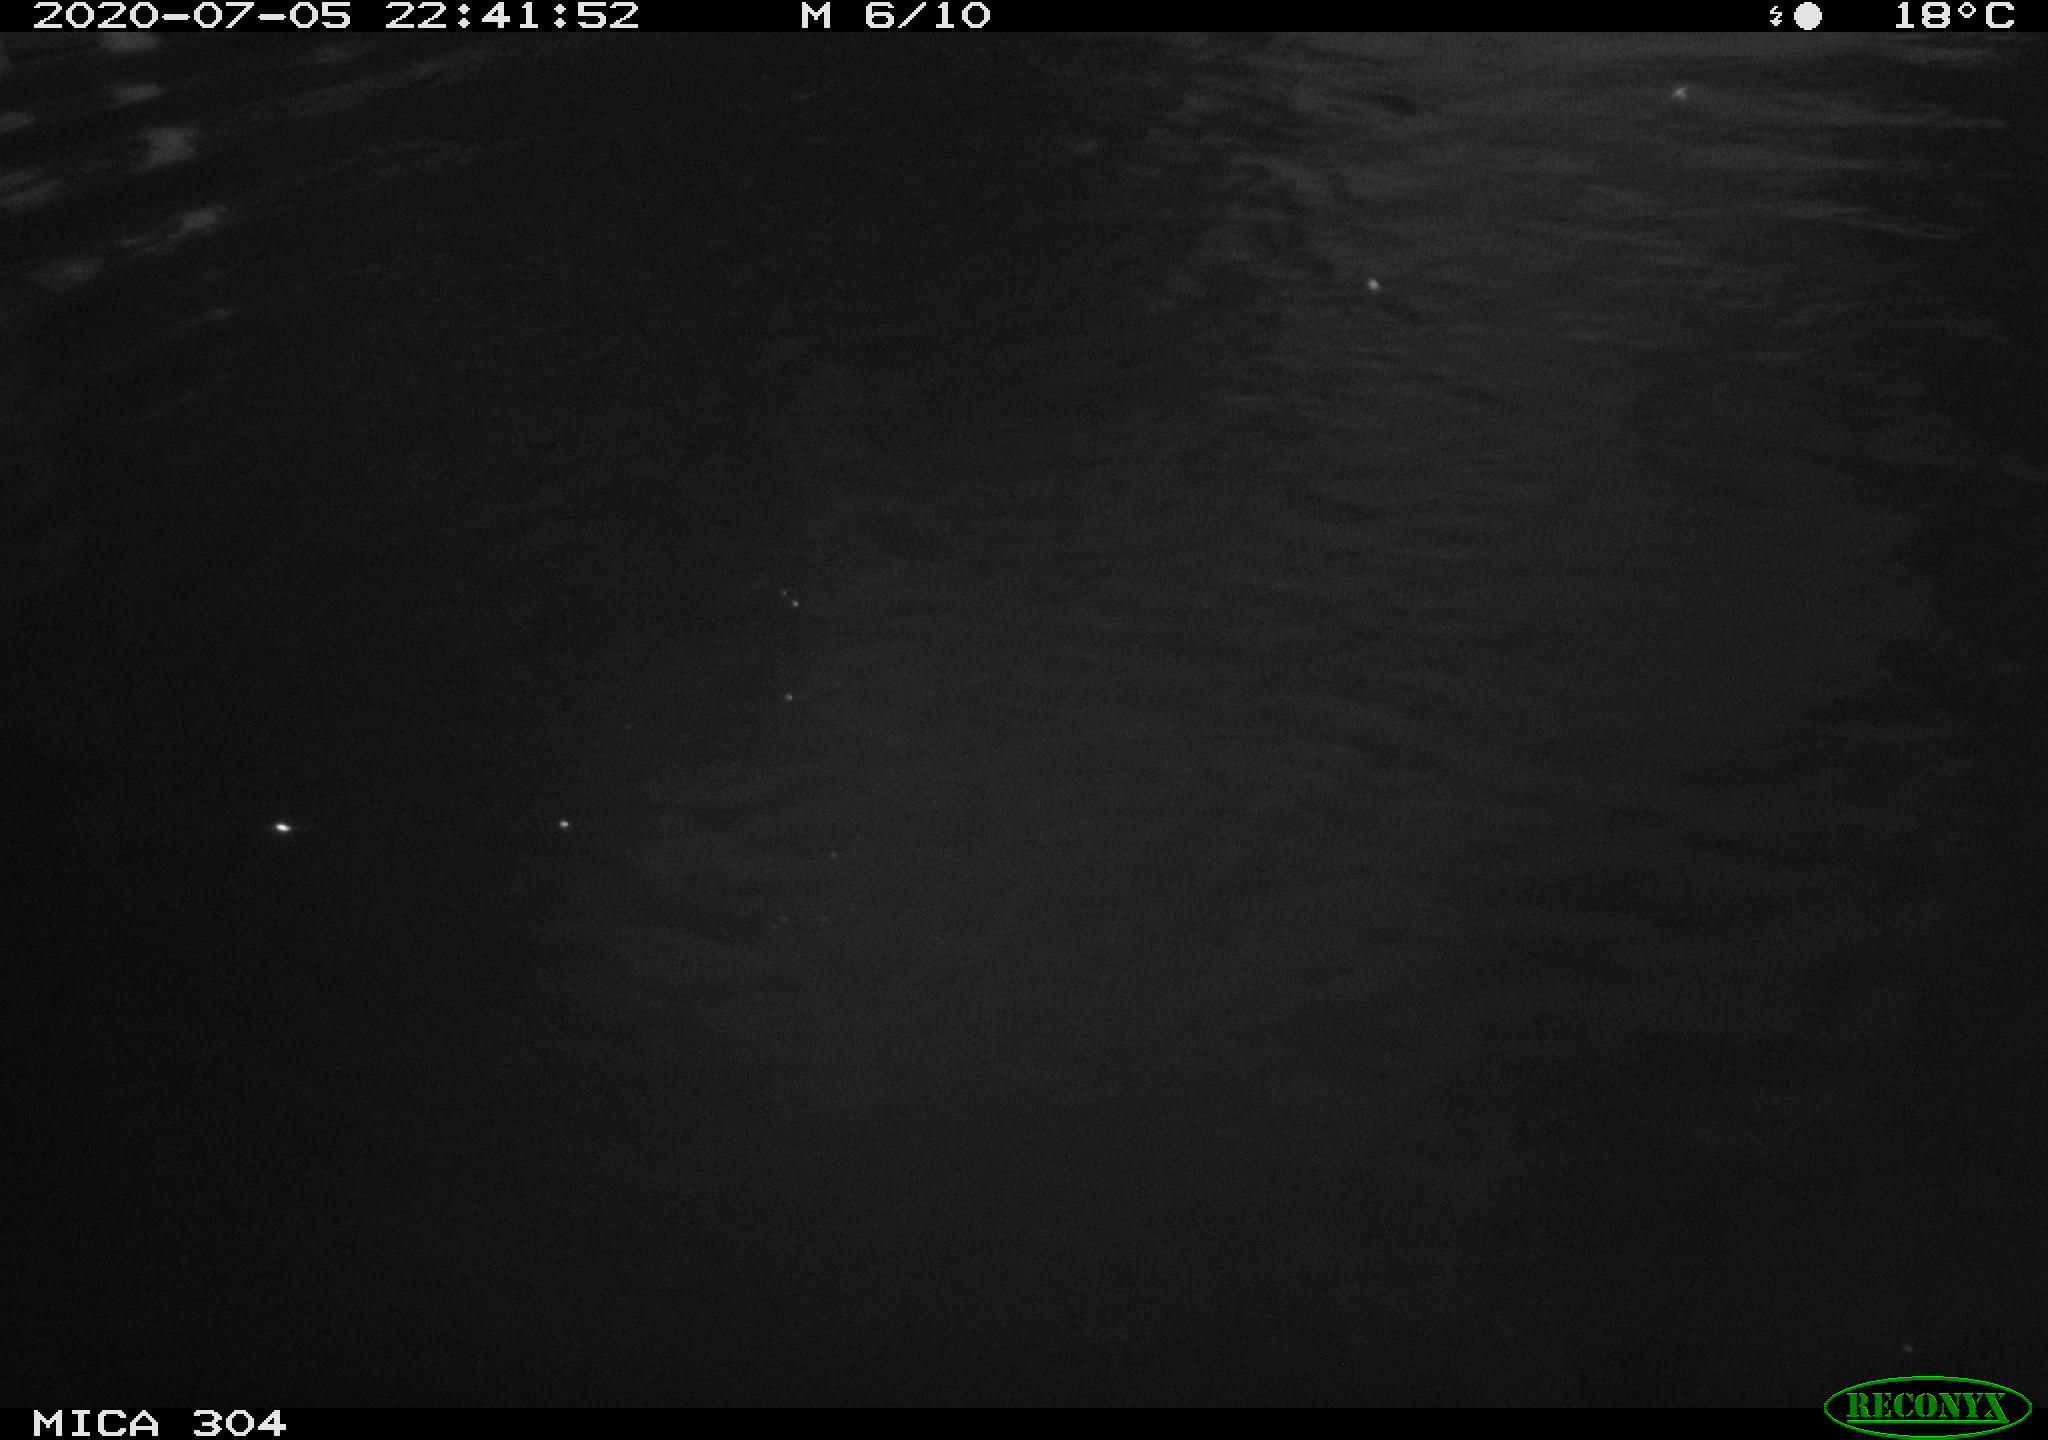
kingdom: Animalia
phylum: Chordata
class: Aves
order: Anseriformes
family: Anatidae
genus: Anas
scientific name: Anas platyrhynchos
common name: Mallard
